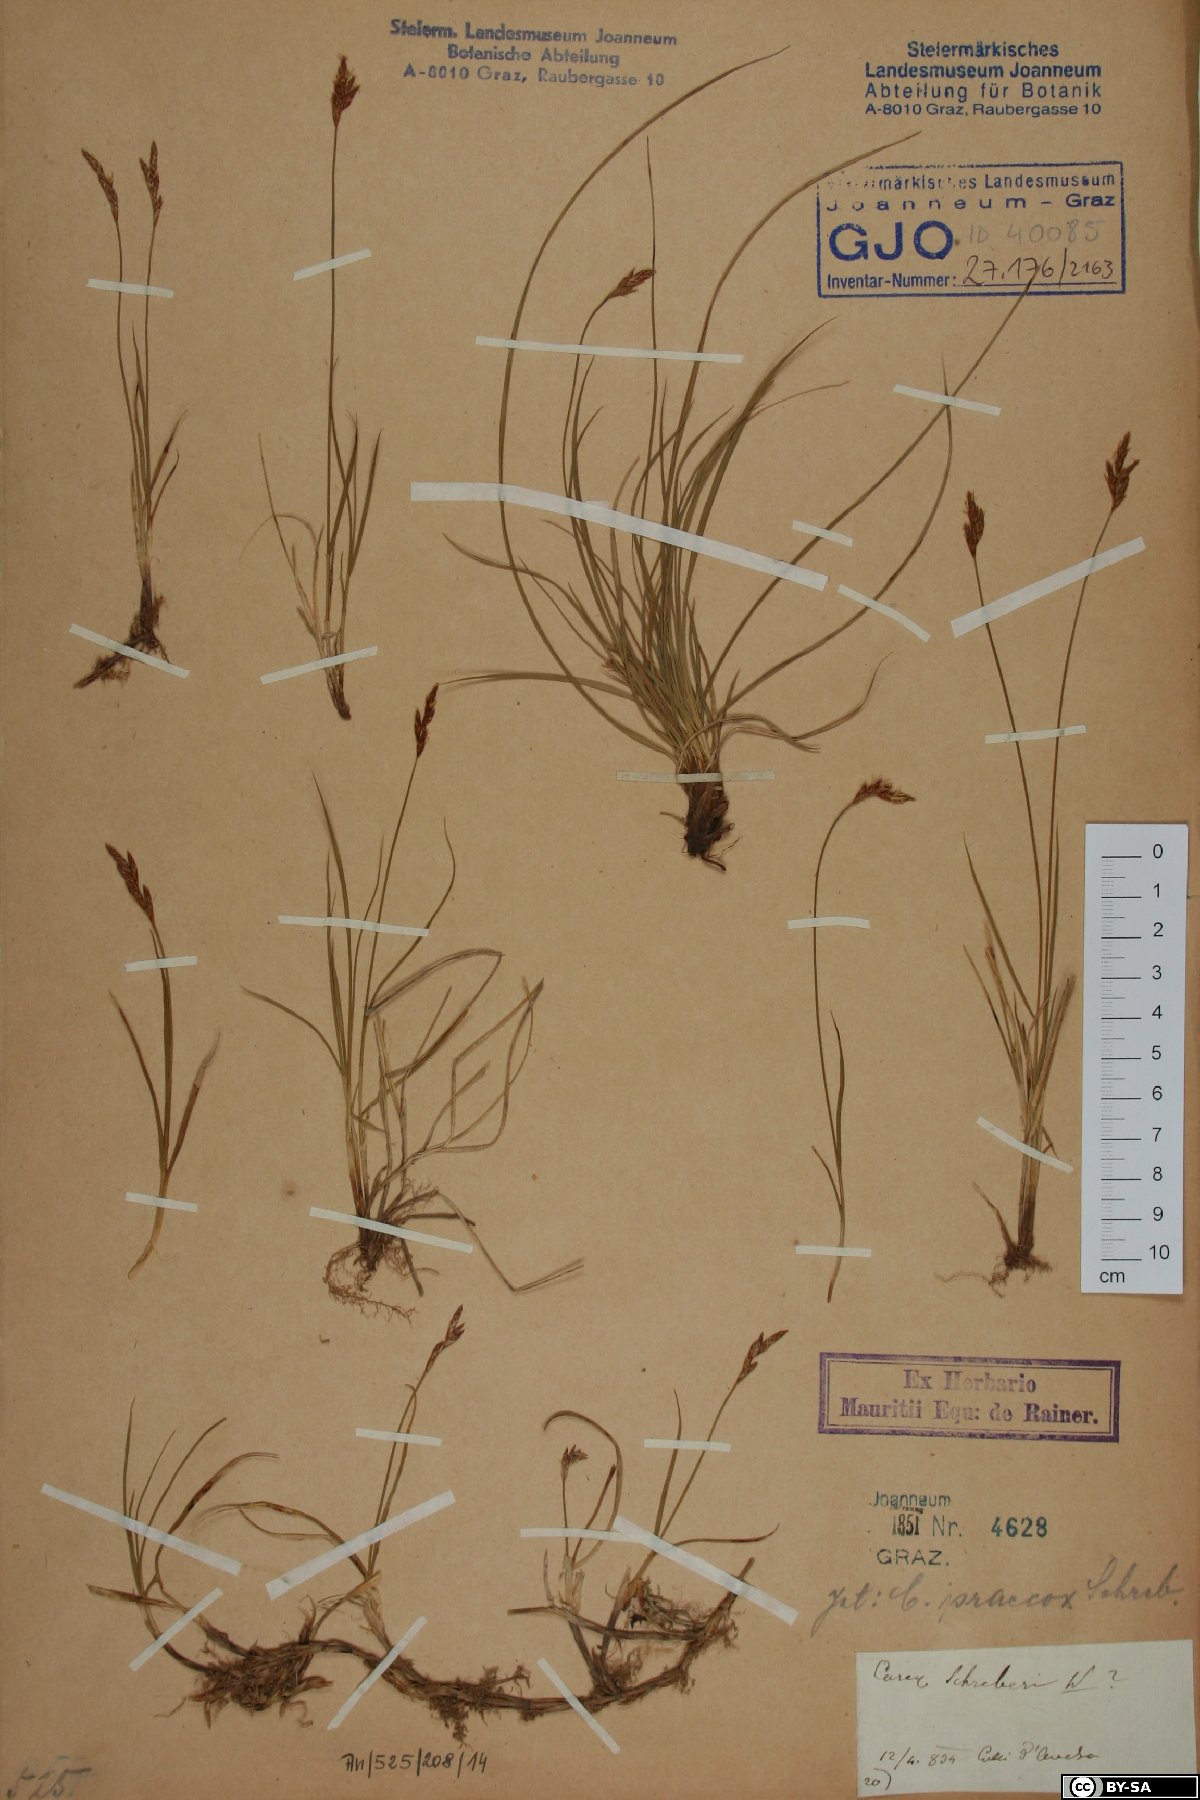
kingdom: Plantae
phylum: Tracheophyta
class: Liliopsida
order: Poales
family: Cyperaceae
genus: Carex
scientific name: Carex praecox
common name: Early sedge
